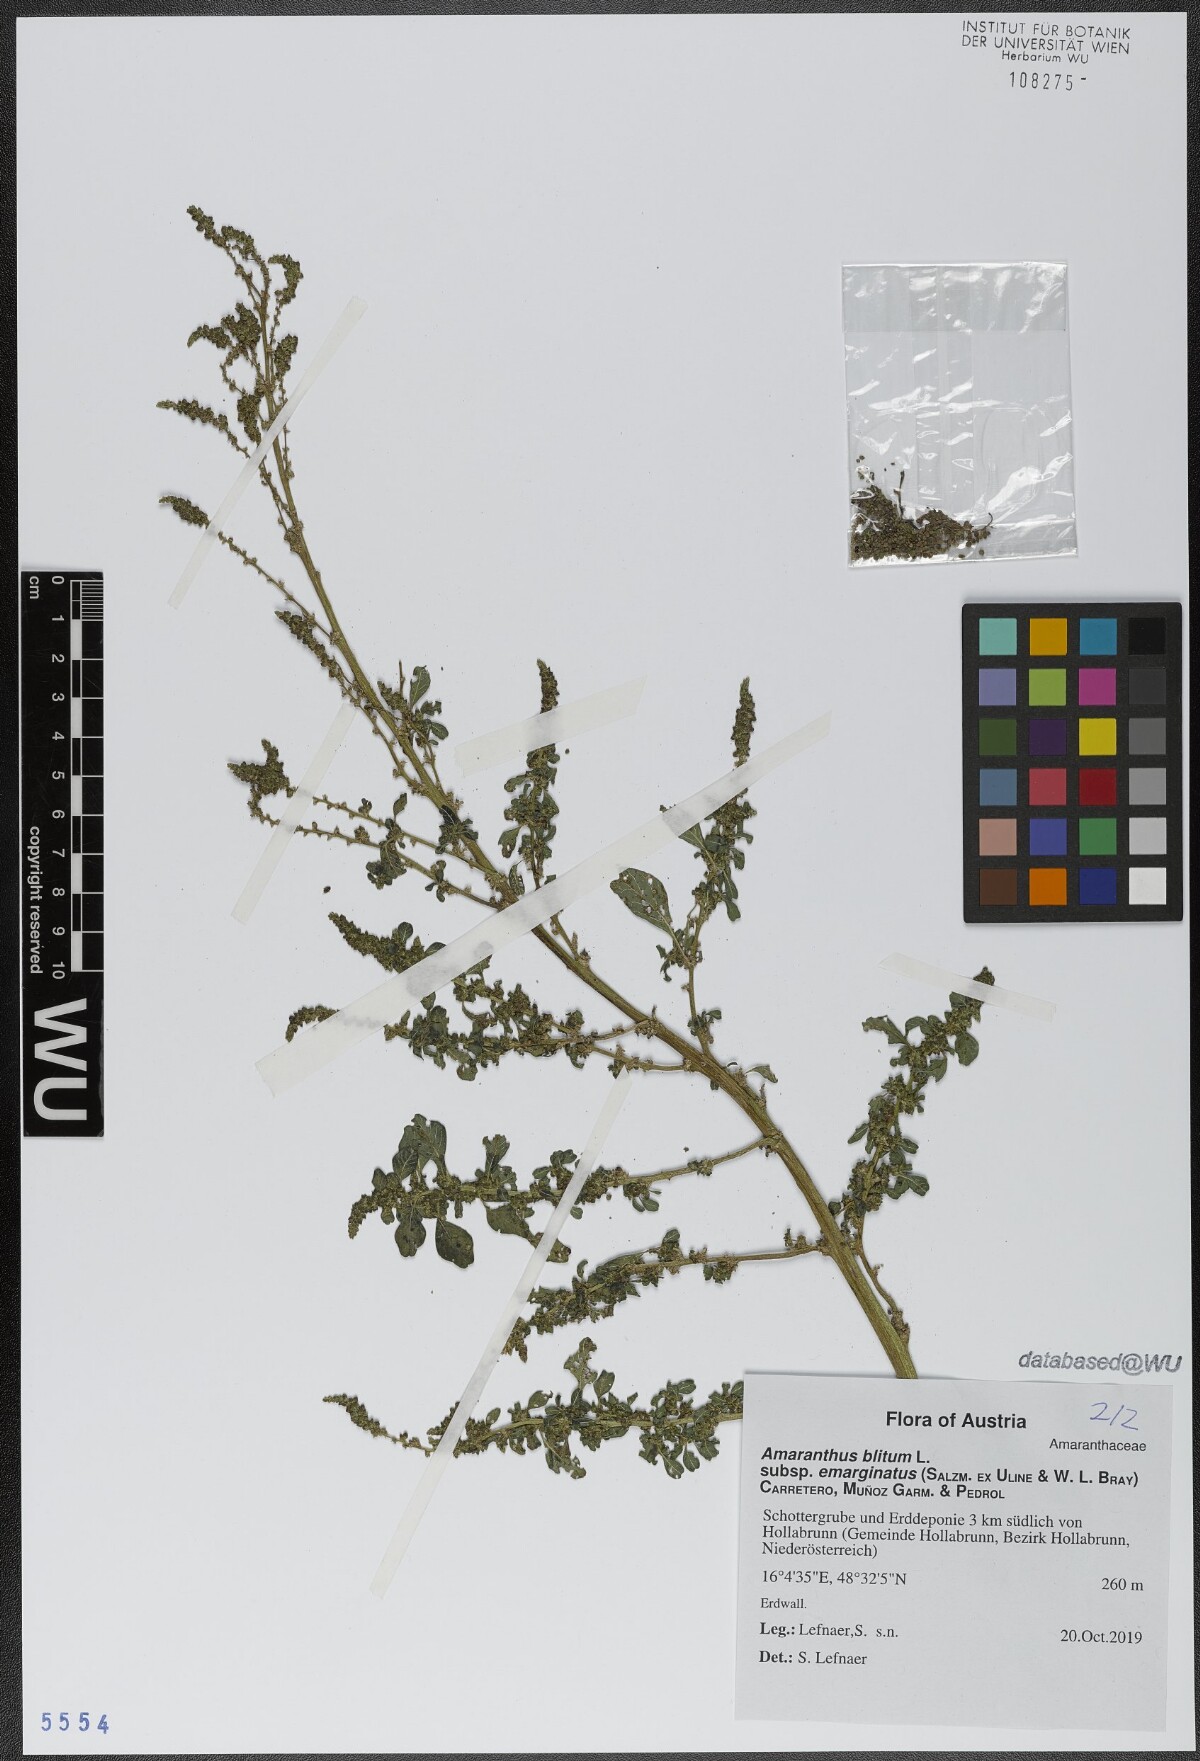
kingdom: Plantae
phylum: Tracheophyta
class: Magnoliopsida
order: Caryophyllales
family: Amaranthaceae
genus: Amaranthus
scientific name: Amaranthus emarginatus
